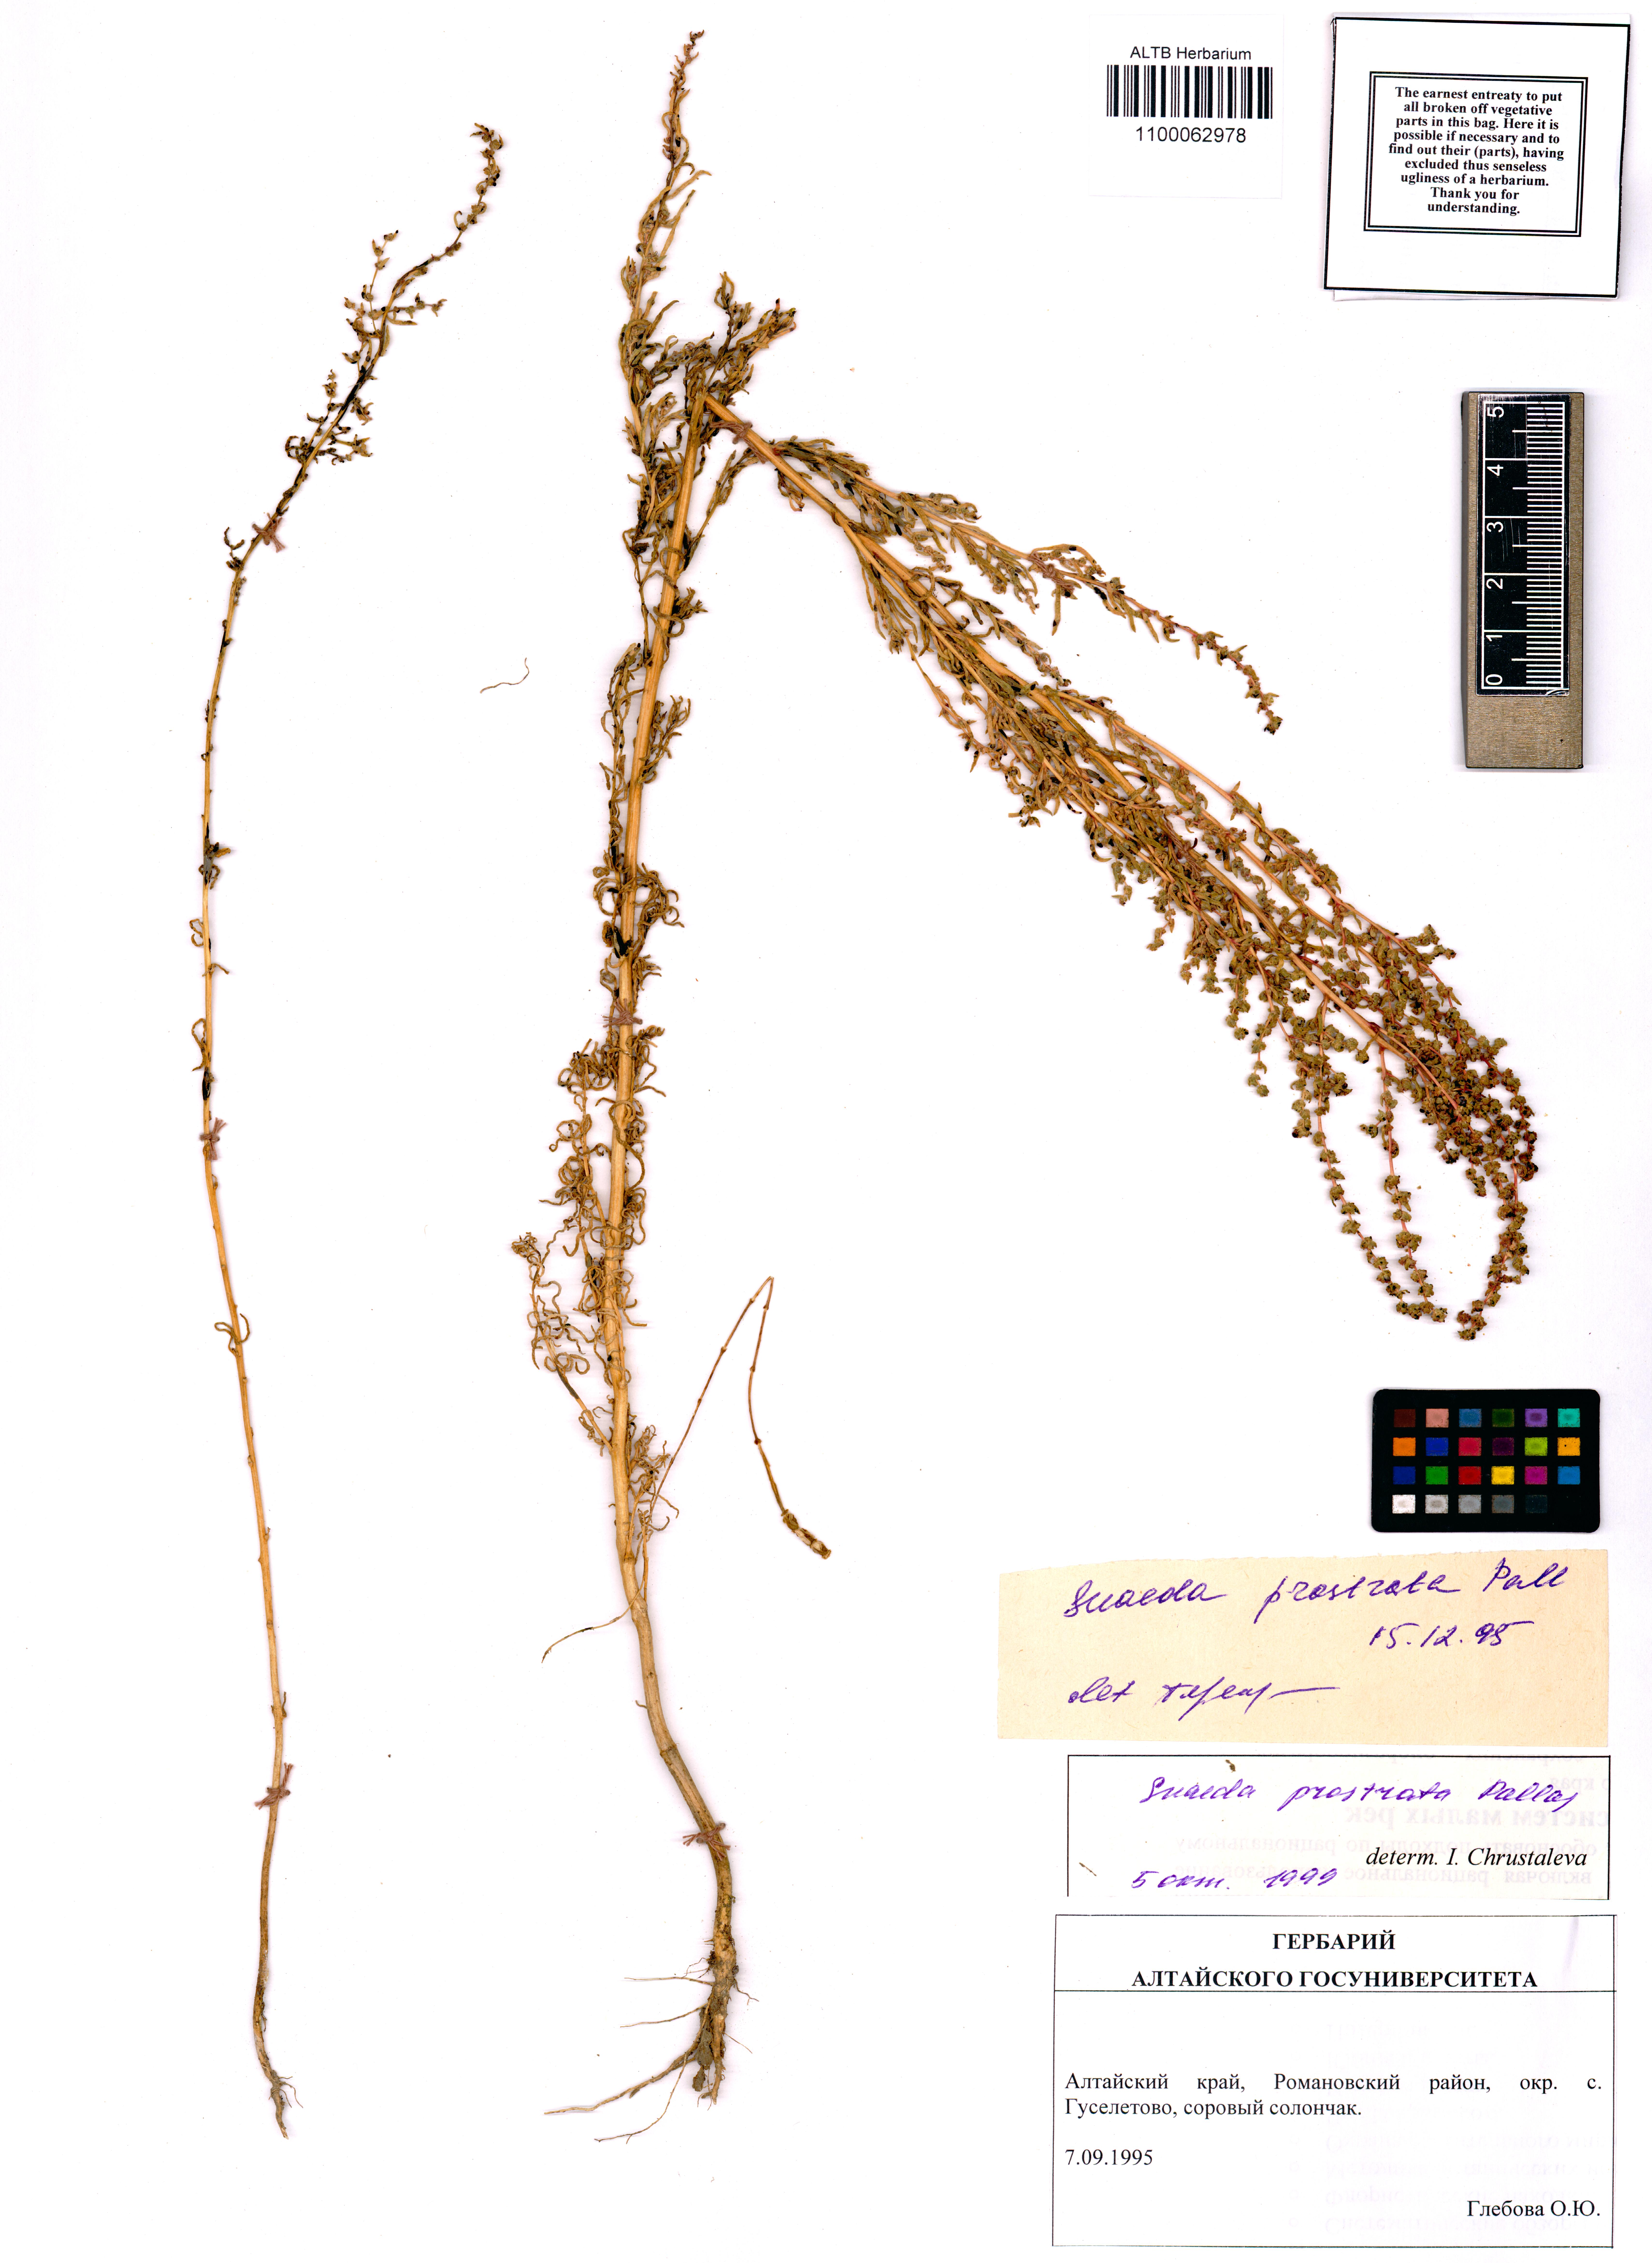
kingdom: Plantae
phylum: Tracheophyta
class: Magnoliopsida
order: Caryophyllales
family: Amaranthaceae
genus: Suaeda
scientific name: Suaeda prostrata
